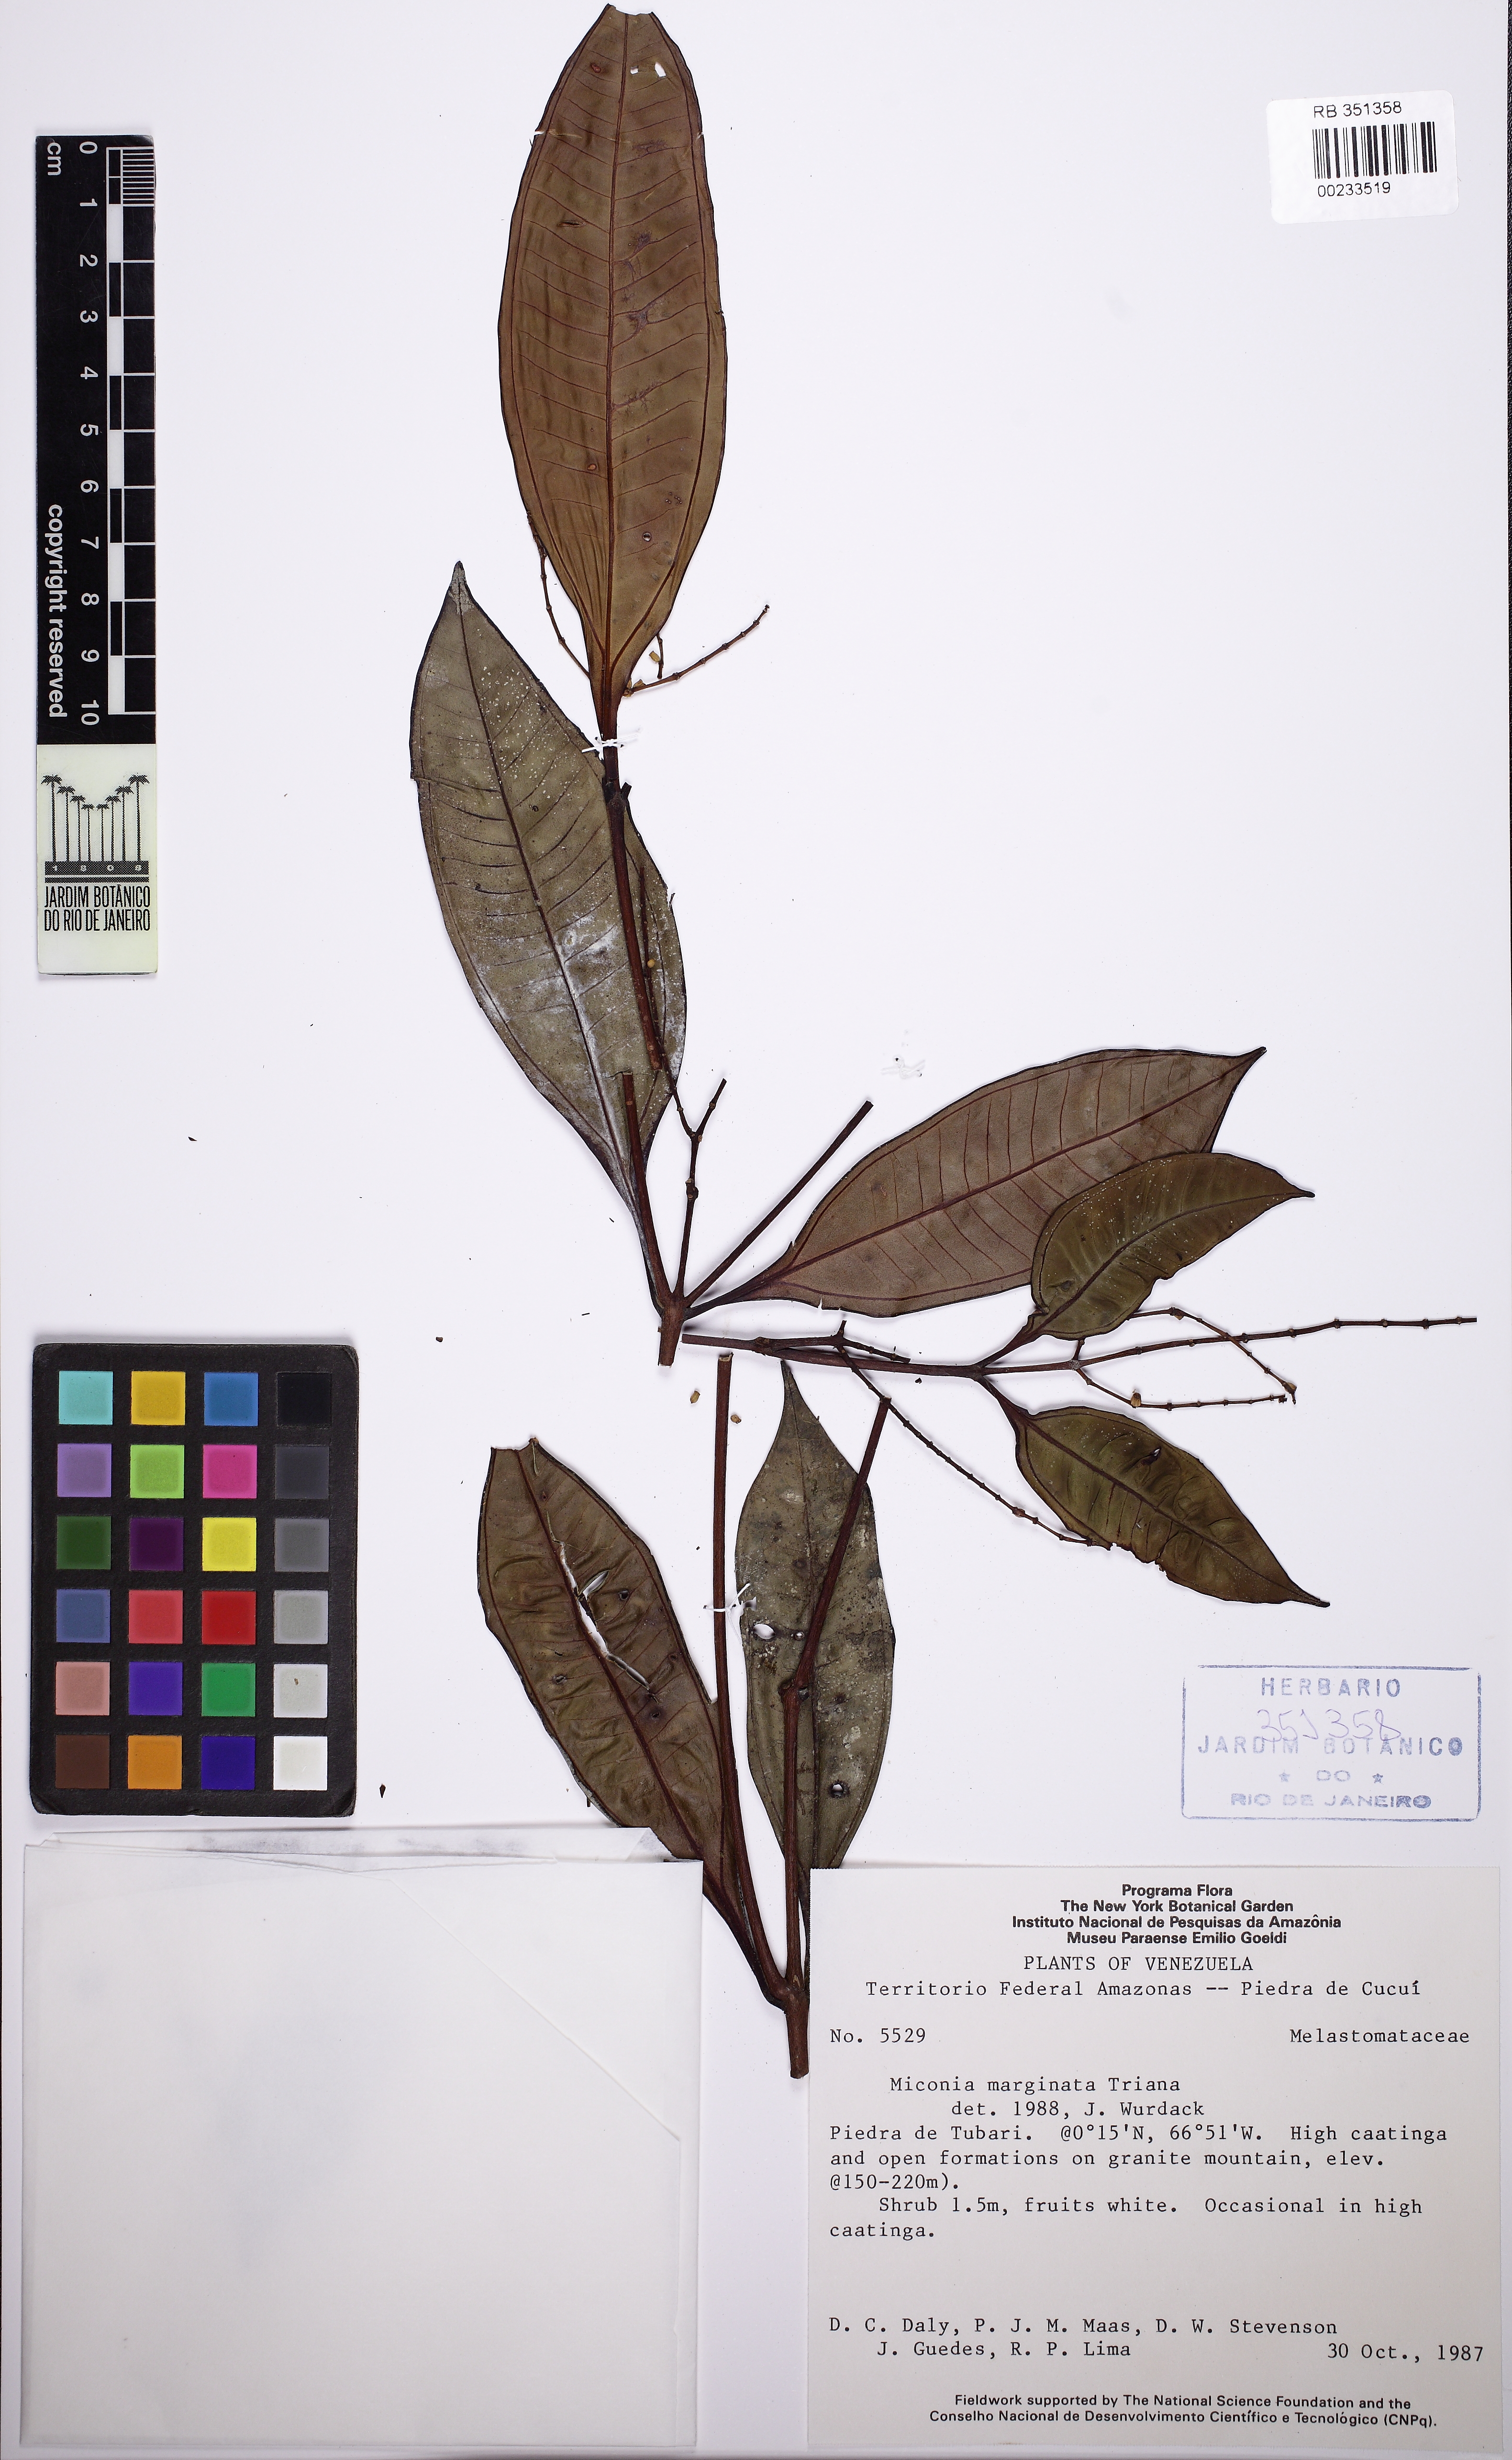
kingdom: Plantae
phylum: Tracheophyta
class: Magnoliopsida
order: Myrtales
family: Melastomataceae
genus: Miconia
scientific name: Miconia marginata
